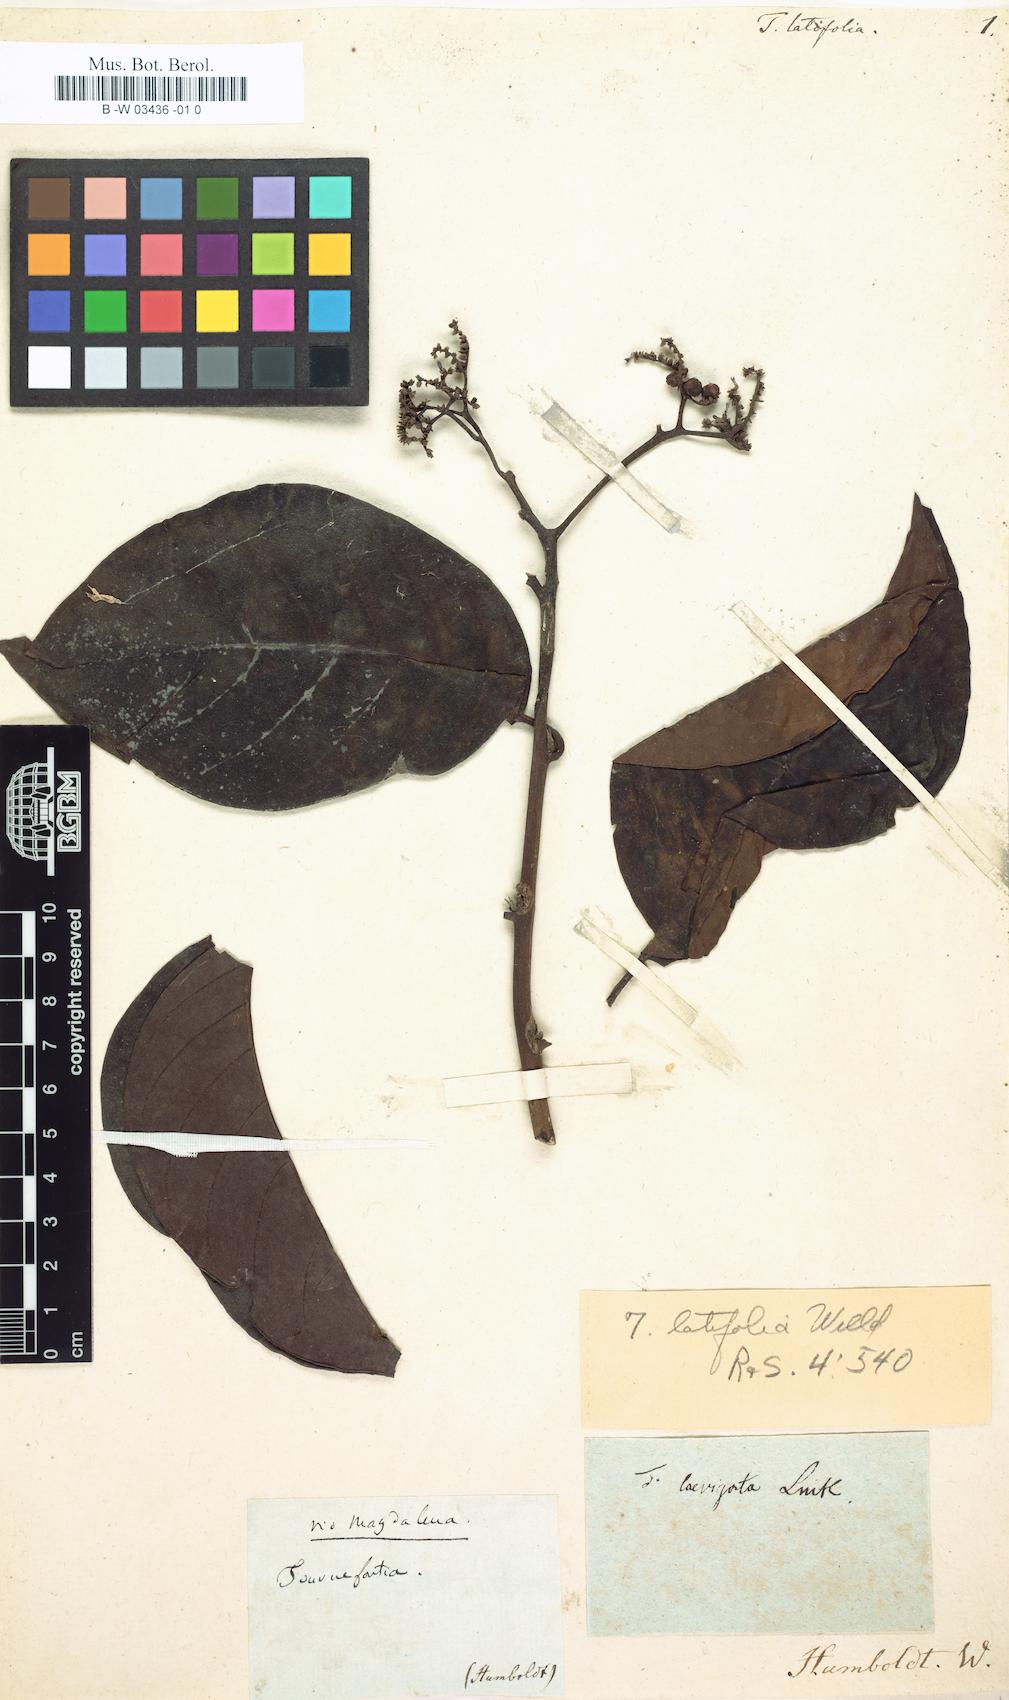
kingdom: Plantae
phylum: Tracheophyta
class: Magnoliopsida
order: Boraginales
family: Heliotropiaceae
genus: Heliotropium
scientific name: Heliotropium laevigatum
